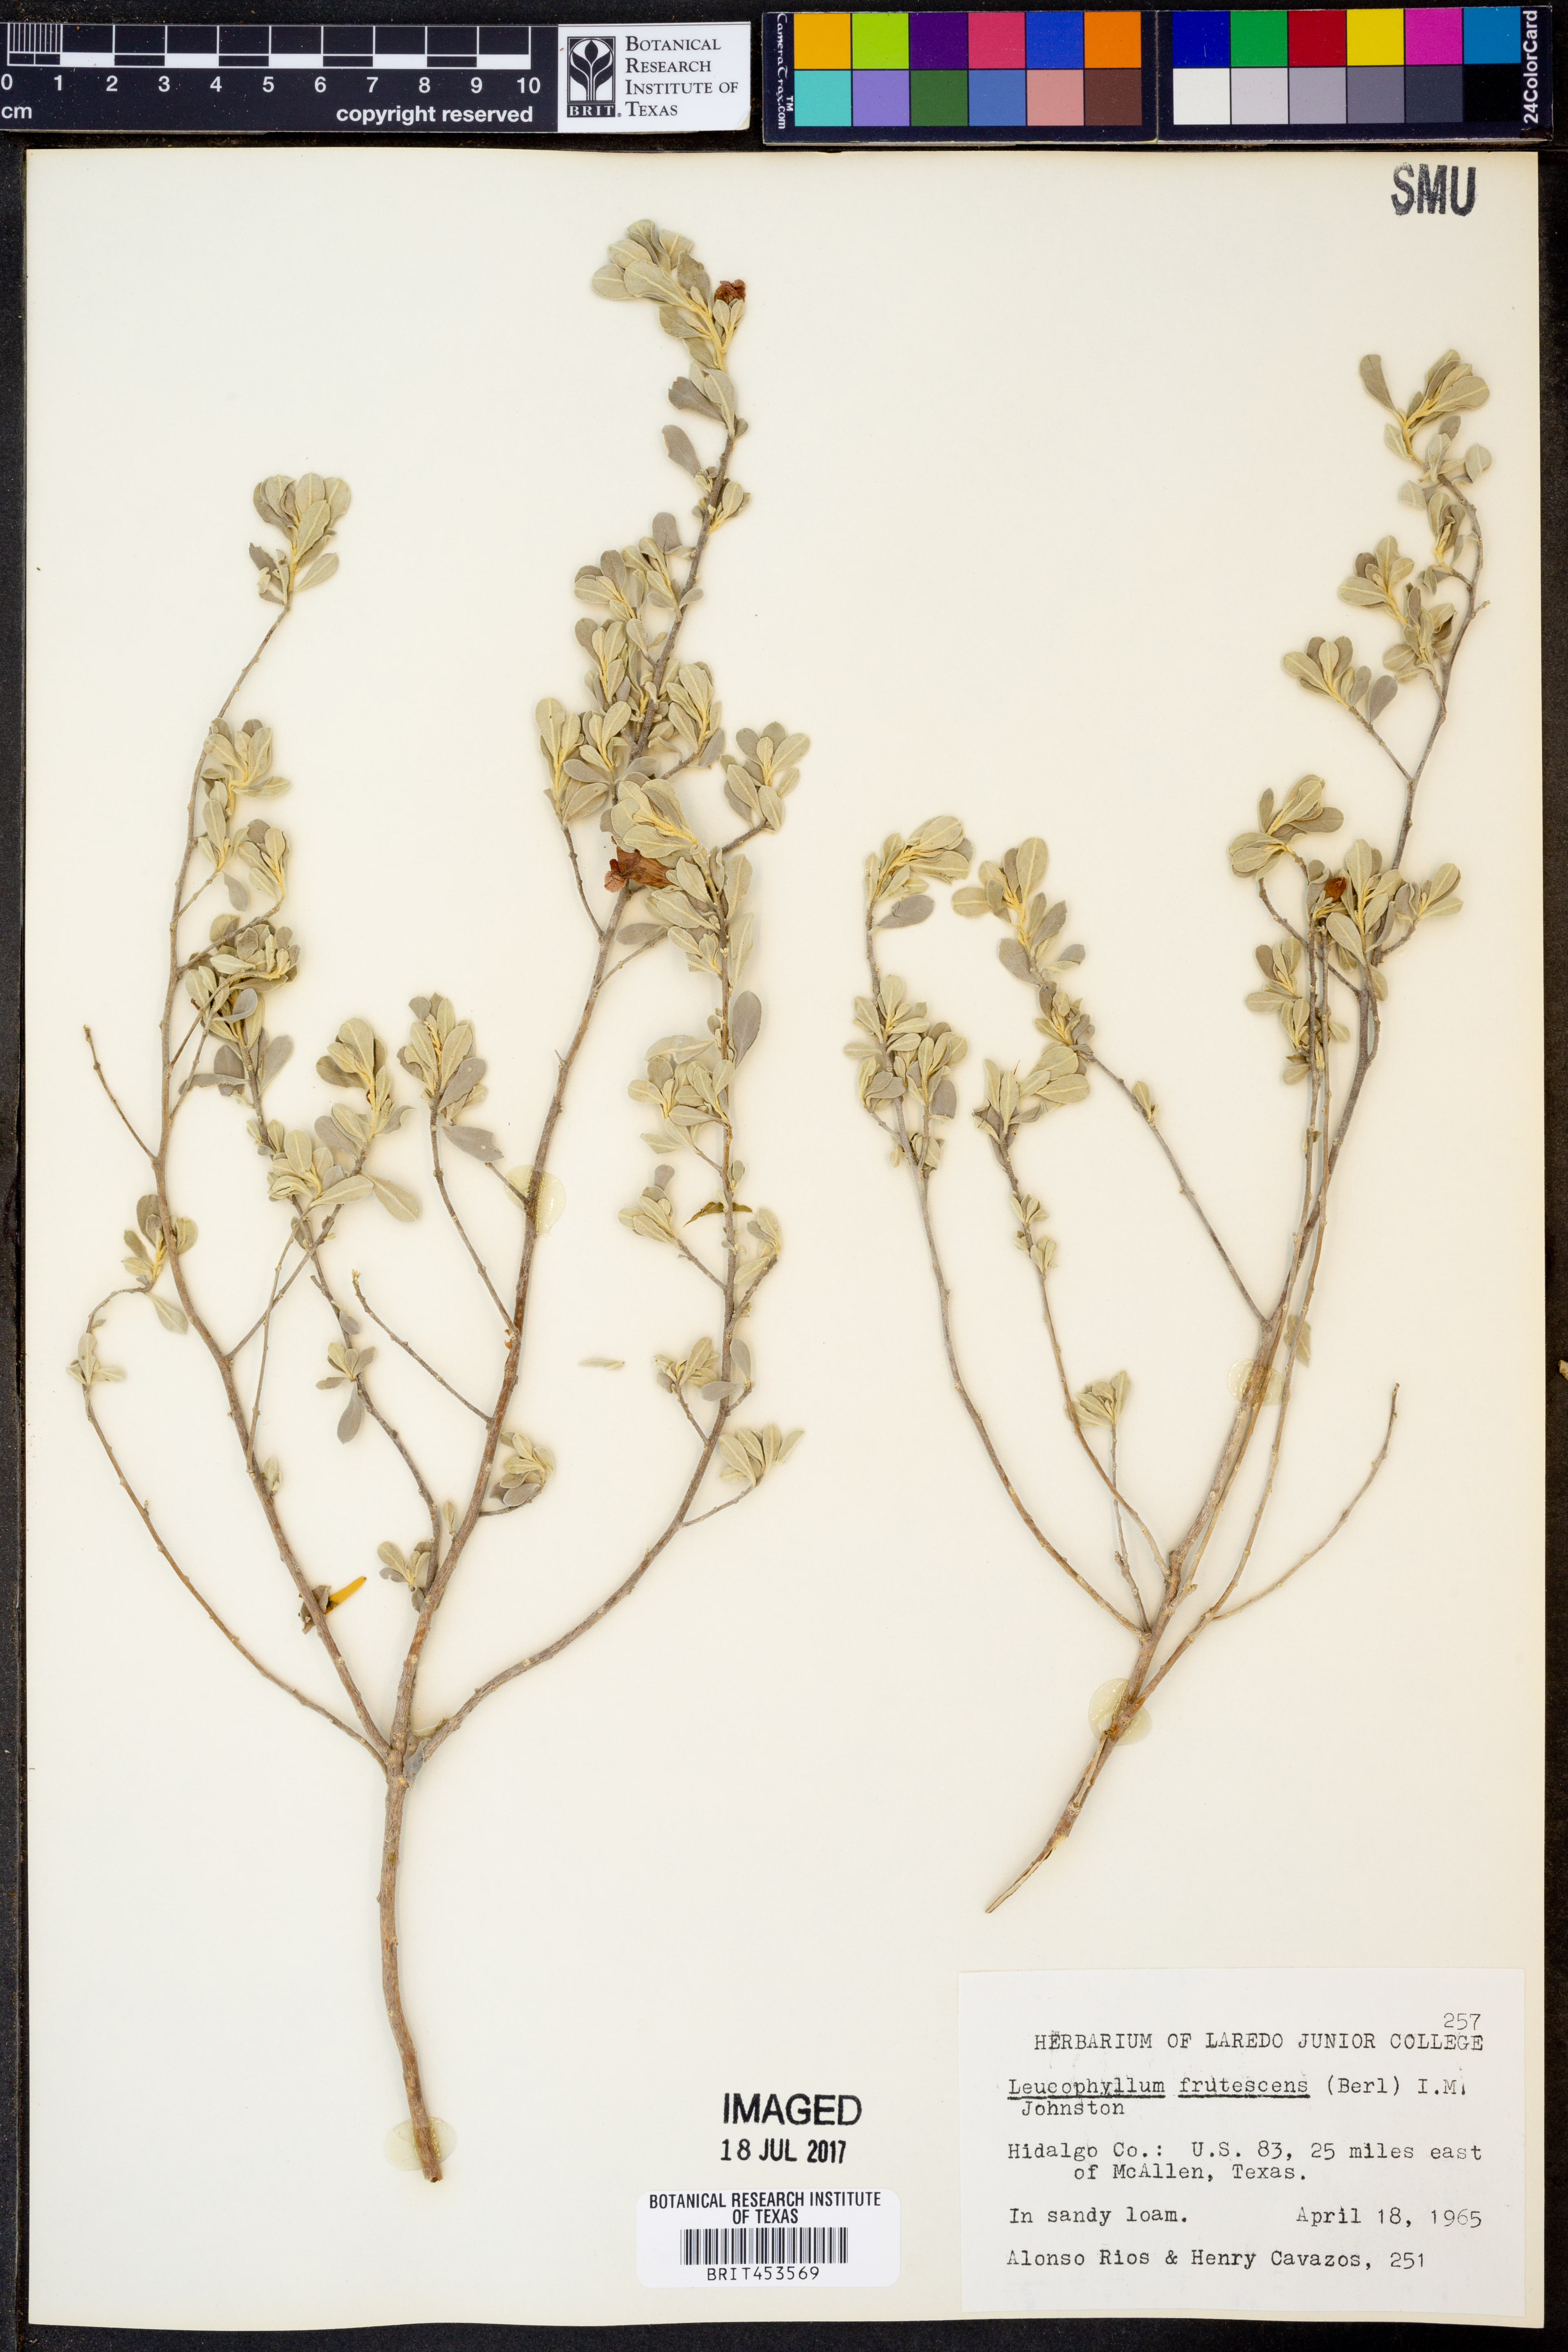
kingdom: Plantae
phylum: Tracheophyta
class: Magnoliopsida
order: Lamiales
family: Scrophulariaceae
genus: Leucophyllum
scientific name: Leucophyllum frutescens
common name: Texas silverleaf
